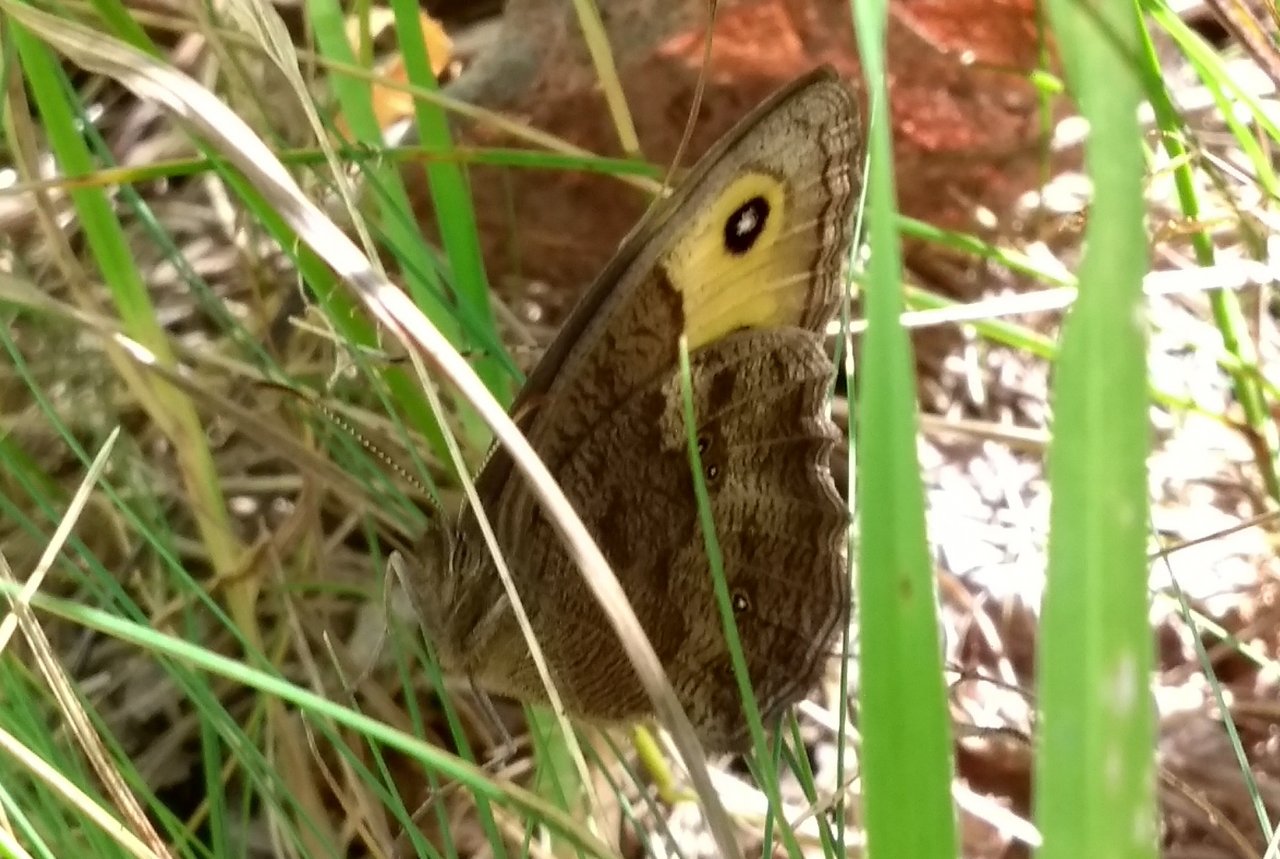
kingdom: Animalia
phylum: Arthropoda
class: Insecta
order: Lepidoptera
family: Nymphalidae
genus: Cercyonis
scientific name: Cercyonis pegala
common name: Common Wood-Nymph
